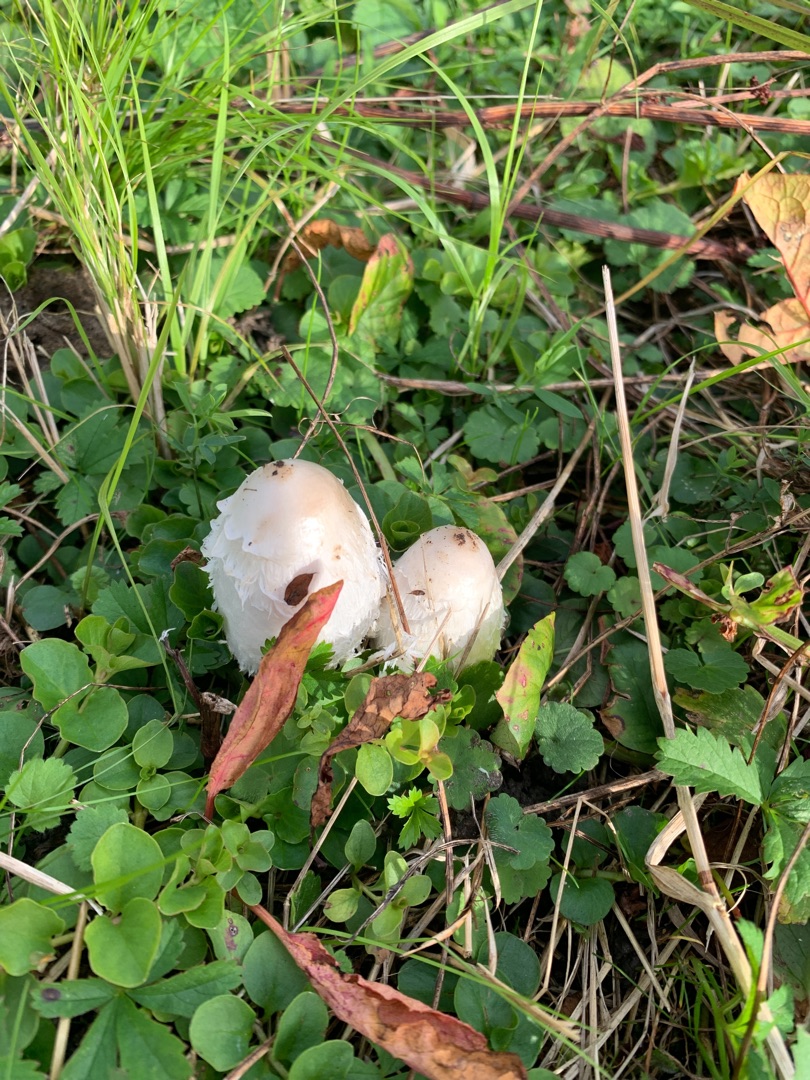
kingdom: Fungi
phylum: Basidiomycota
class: Agaricomycetes
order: Agaricales
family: Agaricaceae
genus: Coprinus
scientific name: Coprinus comatus
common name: Stor parykhat
